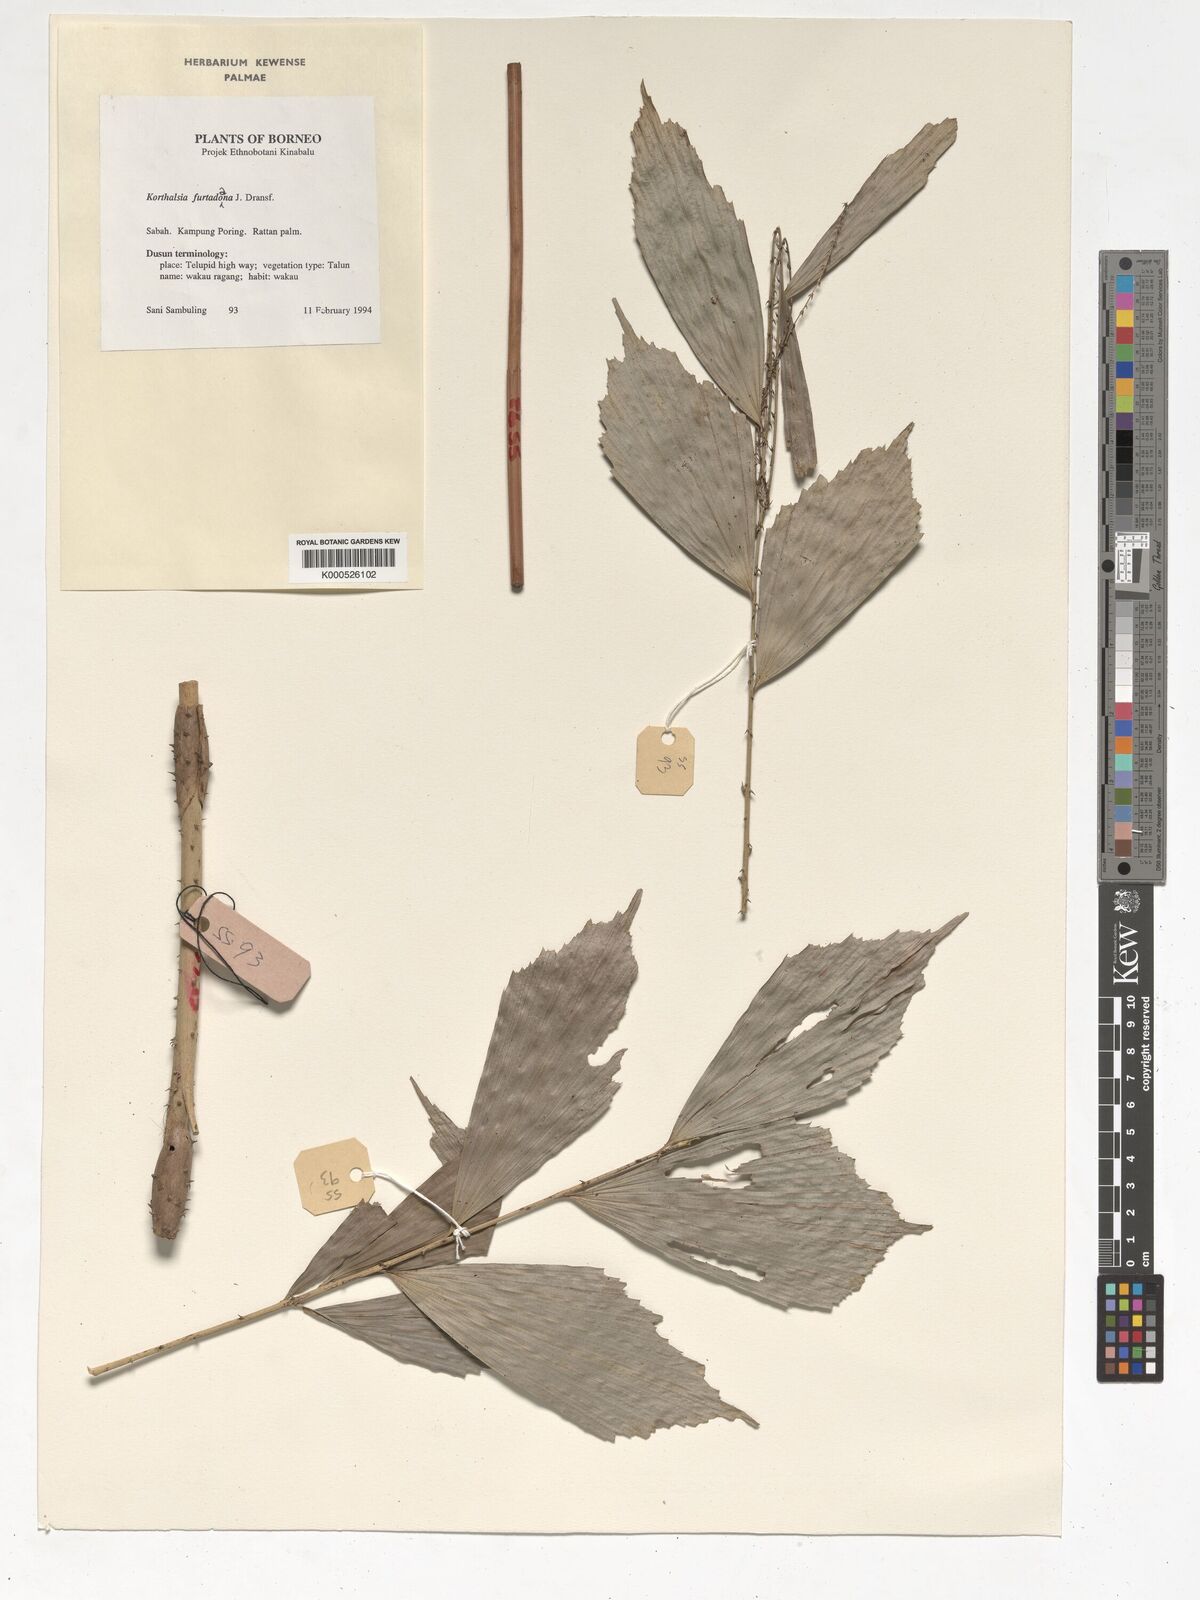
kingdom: Plantae
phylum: Tracheophyta
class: Liliopsida
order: Arecales
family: Arecaceae
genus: Korthalsia
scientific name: Korthalsia furtadoana
